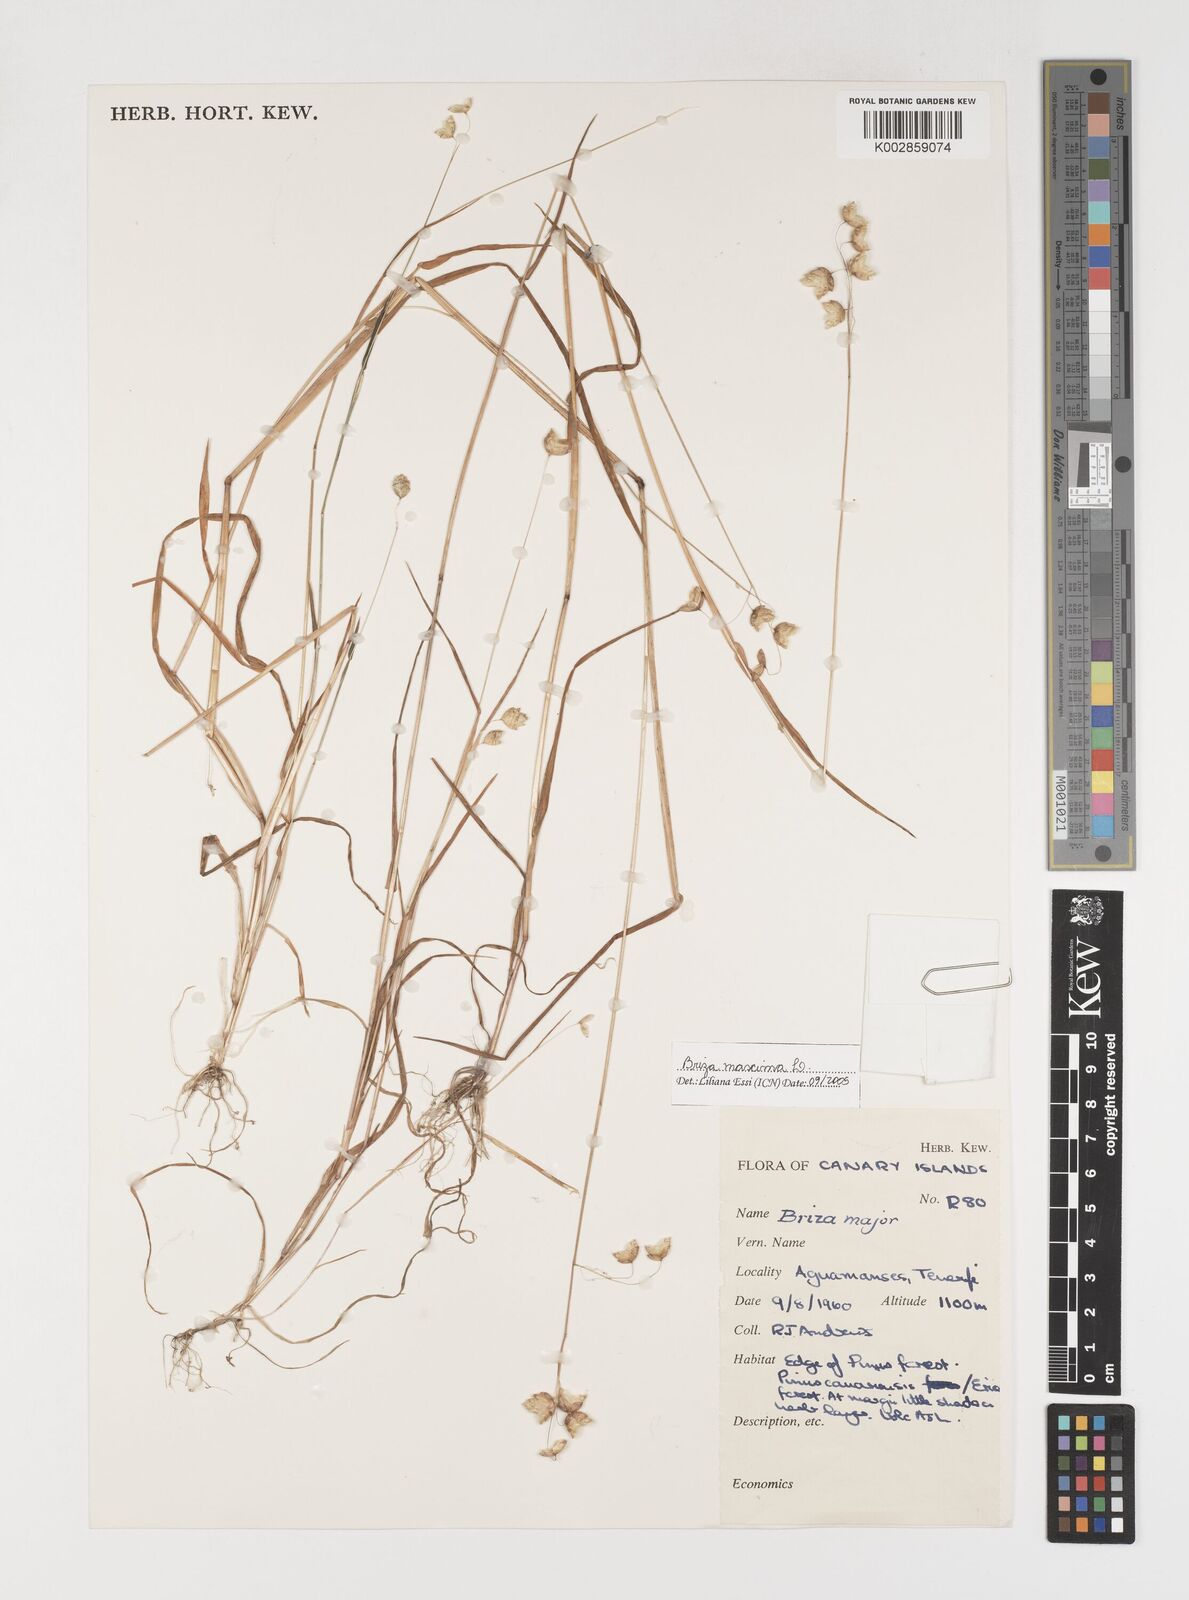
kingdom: Plantae
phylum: Tracheophyta
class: Liliopsida
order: Poales
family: Poaceae
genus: Briza
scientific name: Briza maxima
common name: Big quakinggrass
